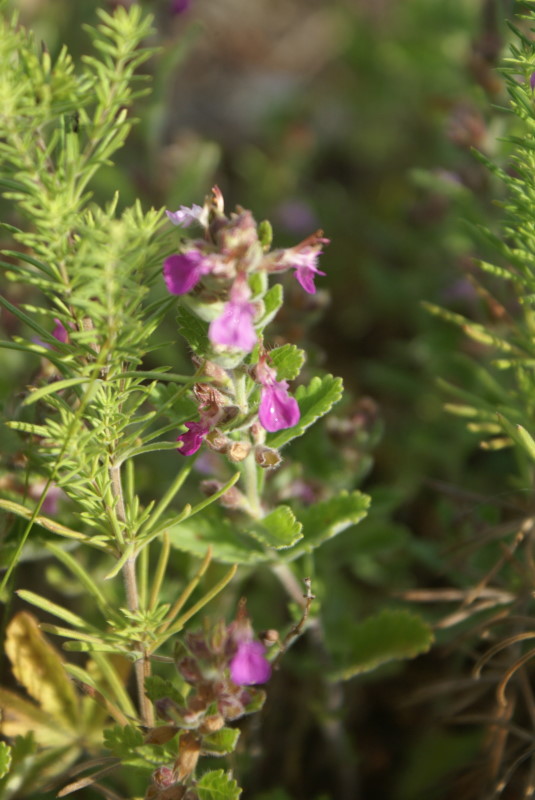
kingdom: Plantae
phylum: Tracheophyta
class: Magnoliopsida
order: Lamiales
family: Lamiaceae
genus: Thymus
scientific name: Thymus
